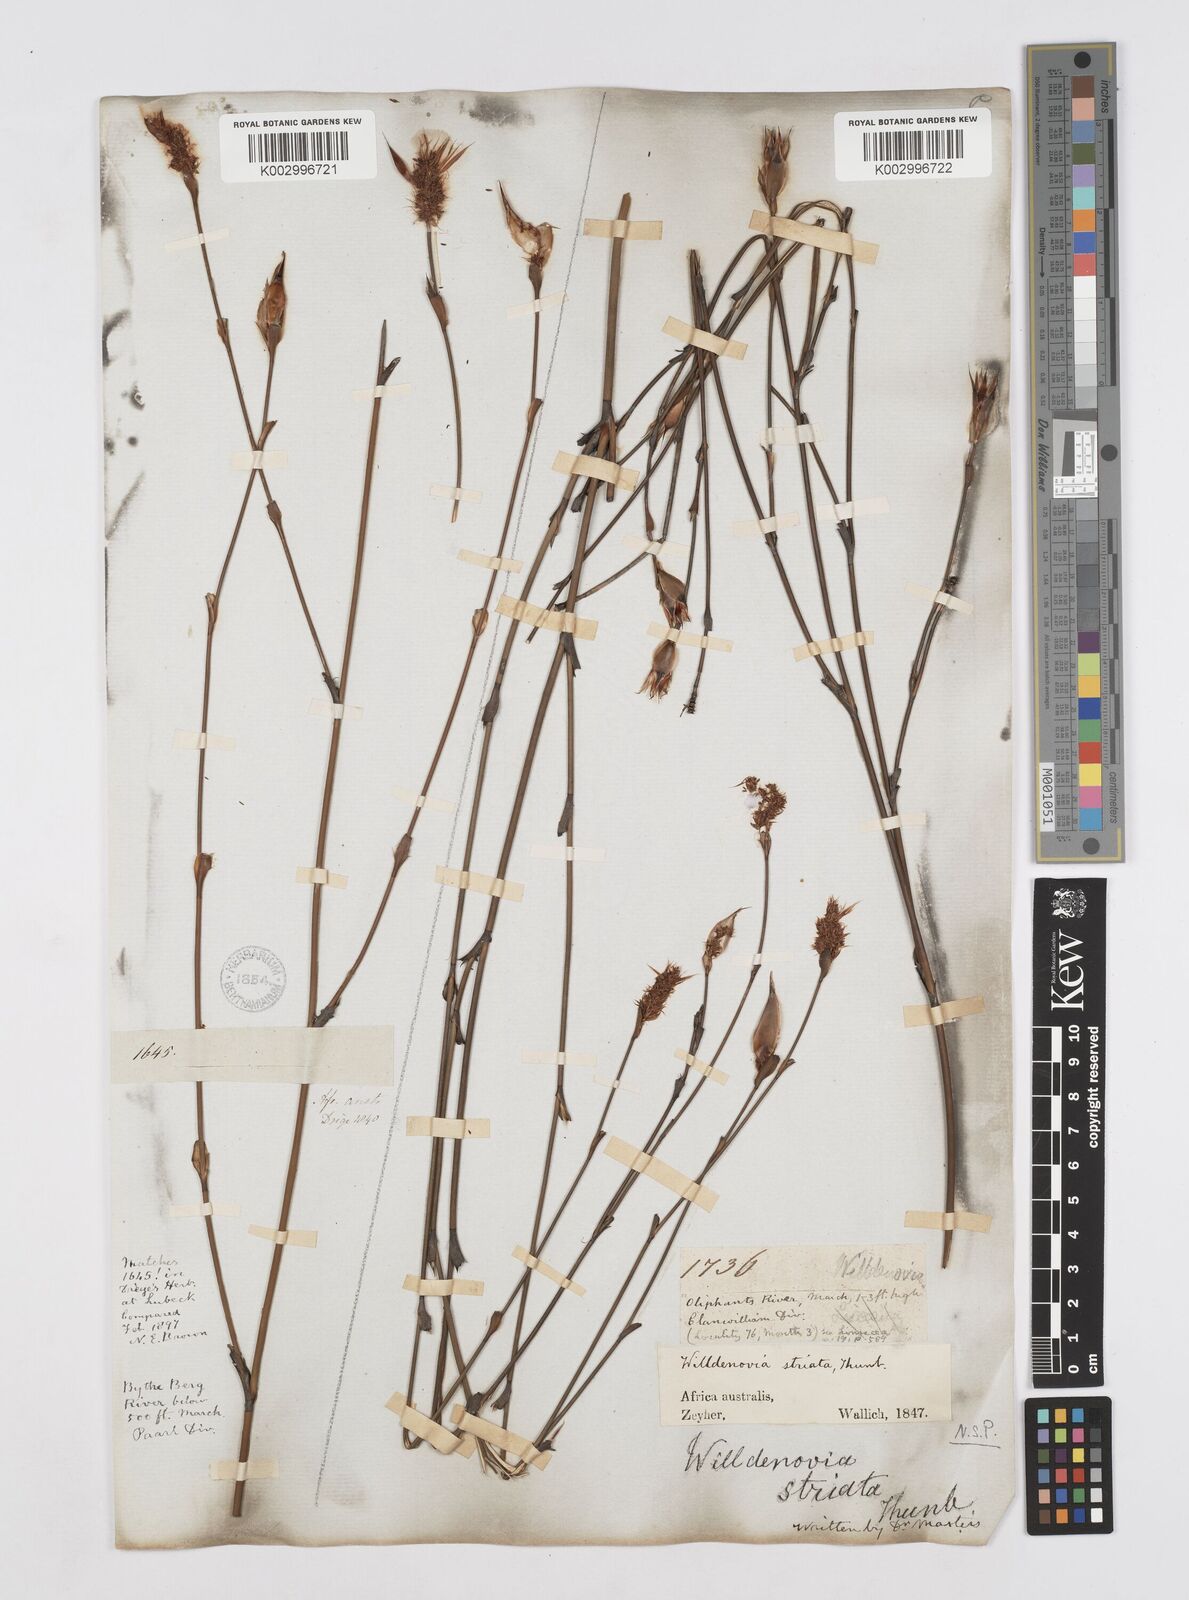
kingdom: Plantae
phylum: Tracheophyta
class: Liliopsida
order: Poales
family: Restionaceae
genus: Willdenowia
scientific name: Willdenowia incurvata
